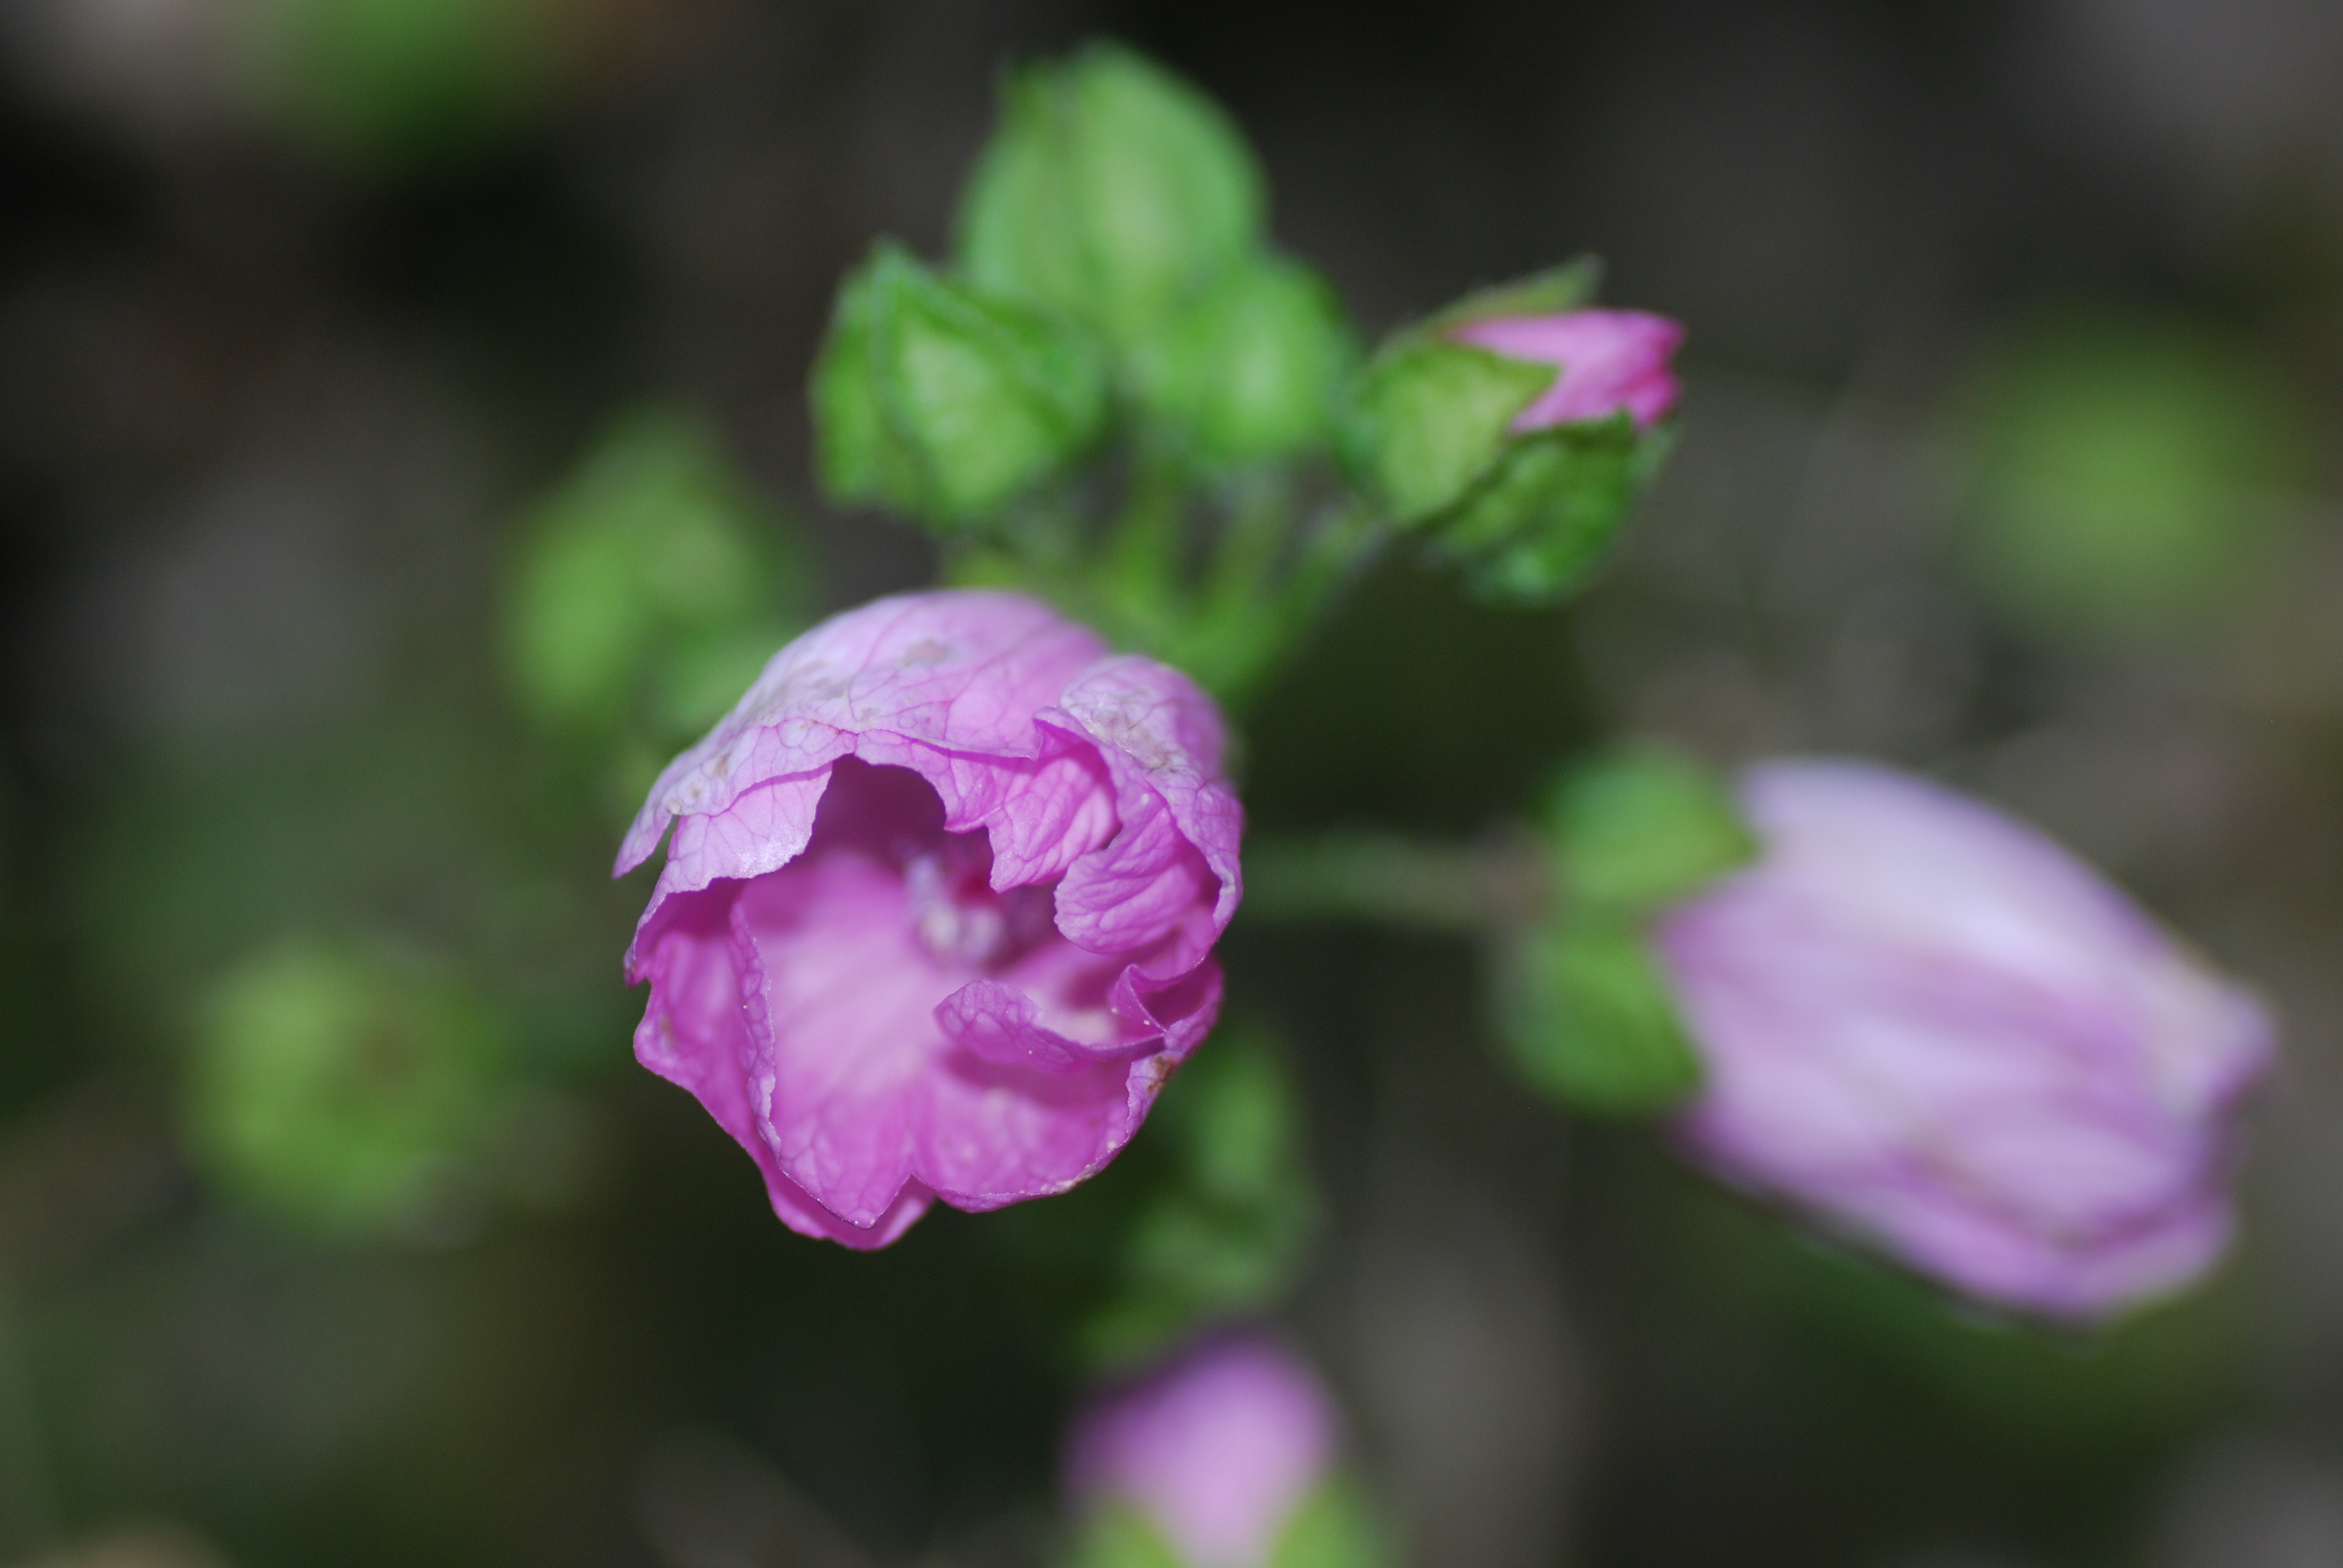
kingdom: Plantae
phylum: Tracheophyta
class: Magnoliopsida
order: Malvales
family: Malvaceae
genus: Malva
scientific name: Malva moschata
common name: Musk mallow
